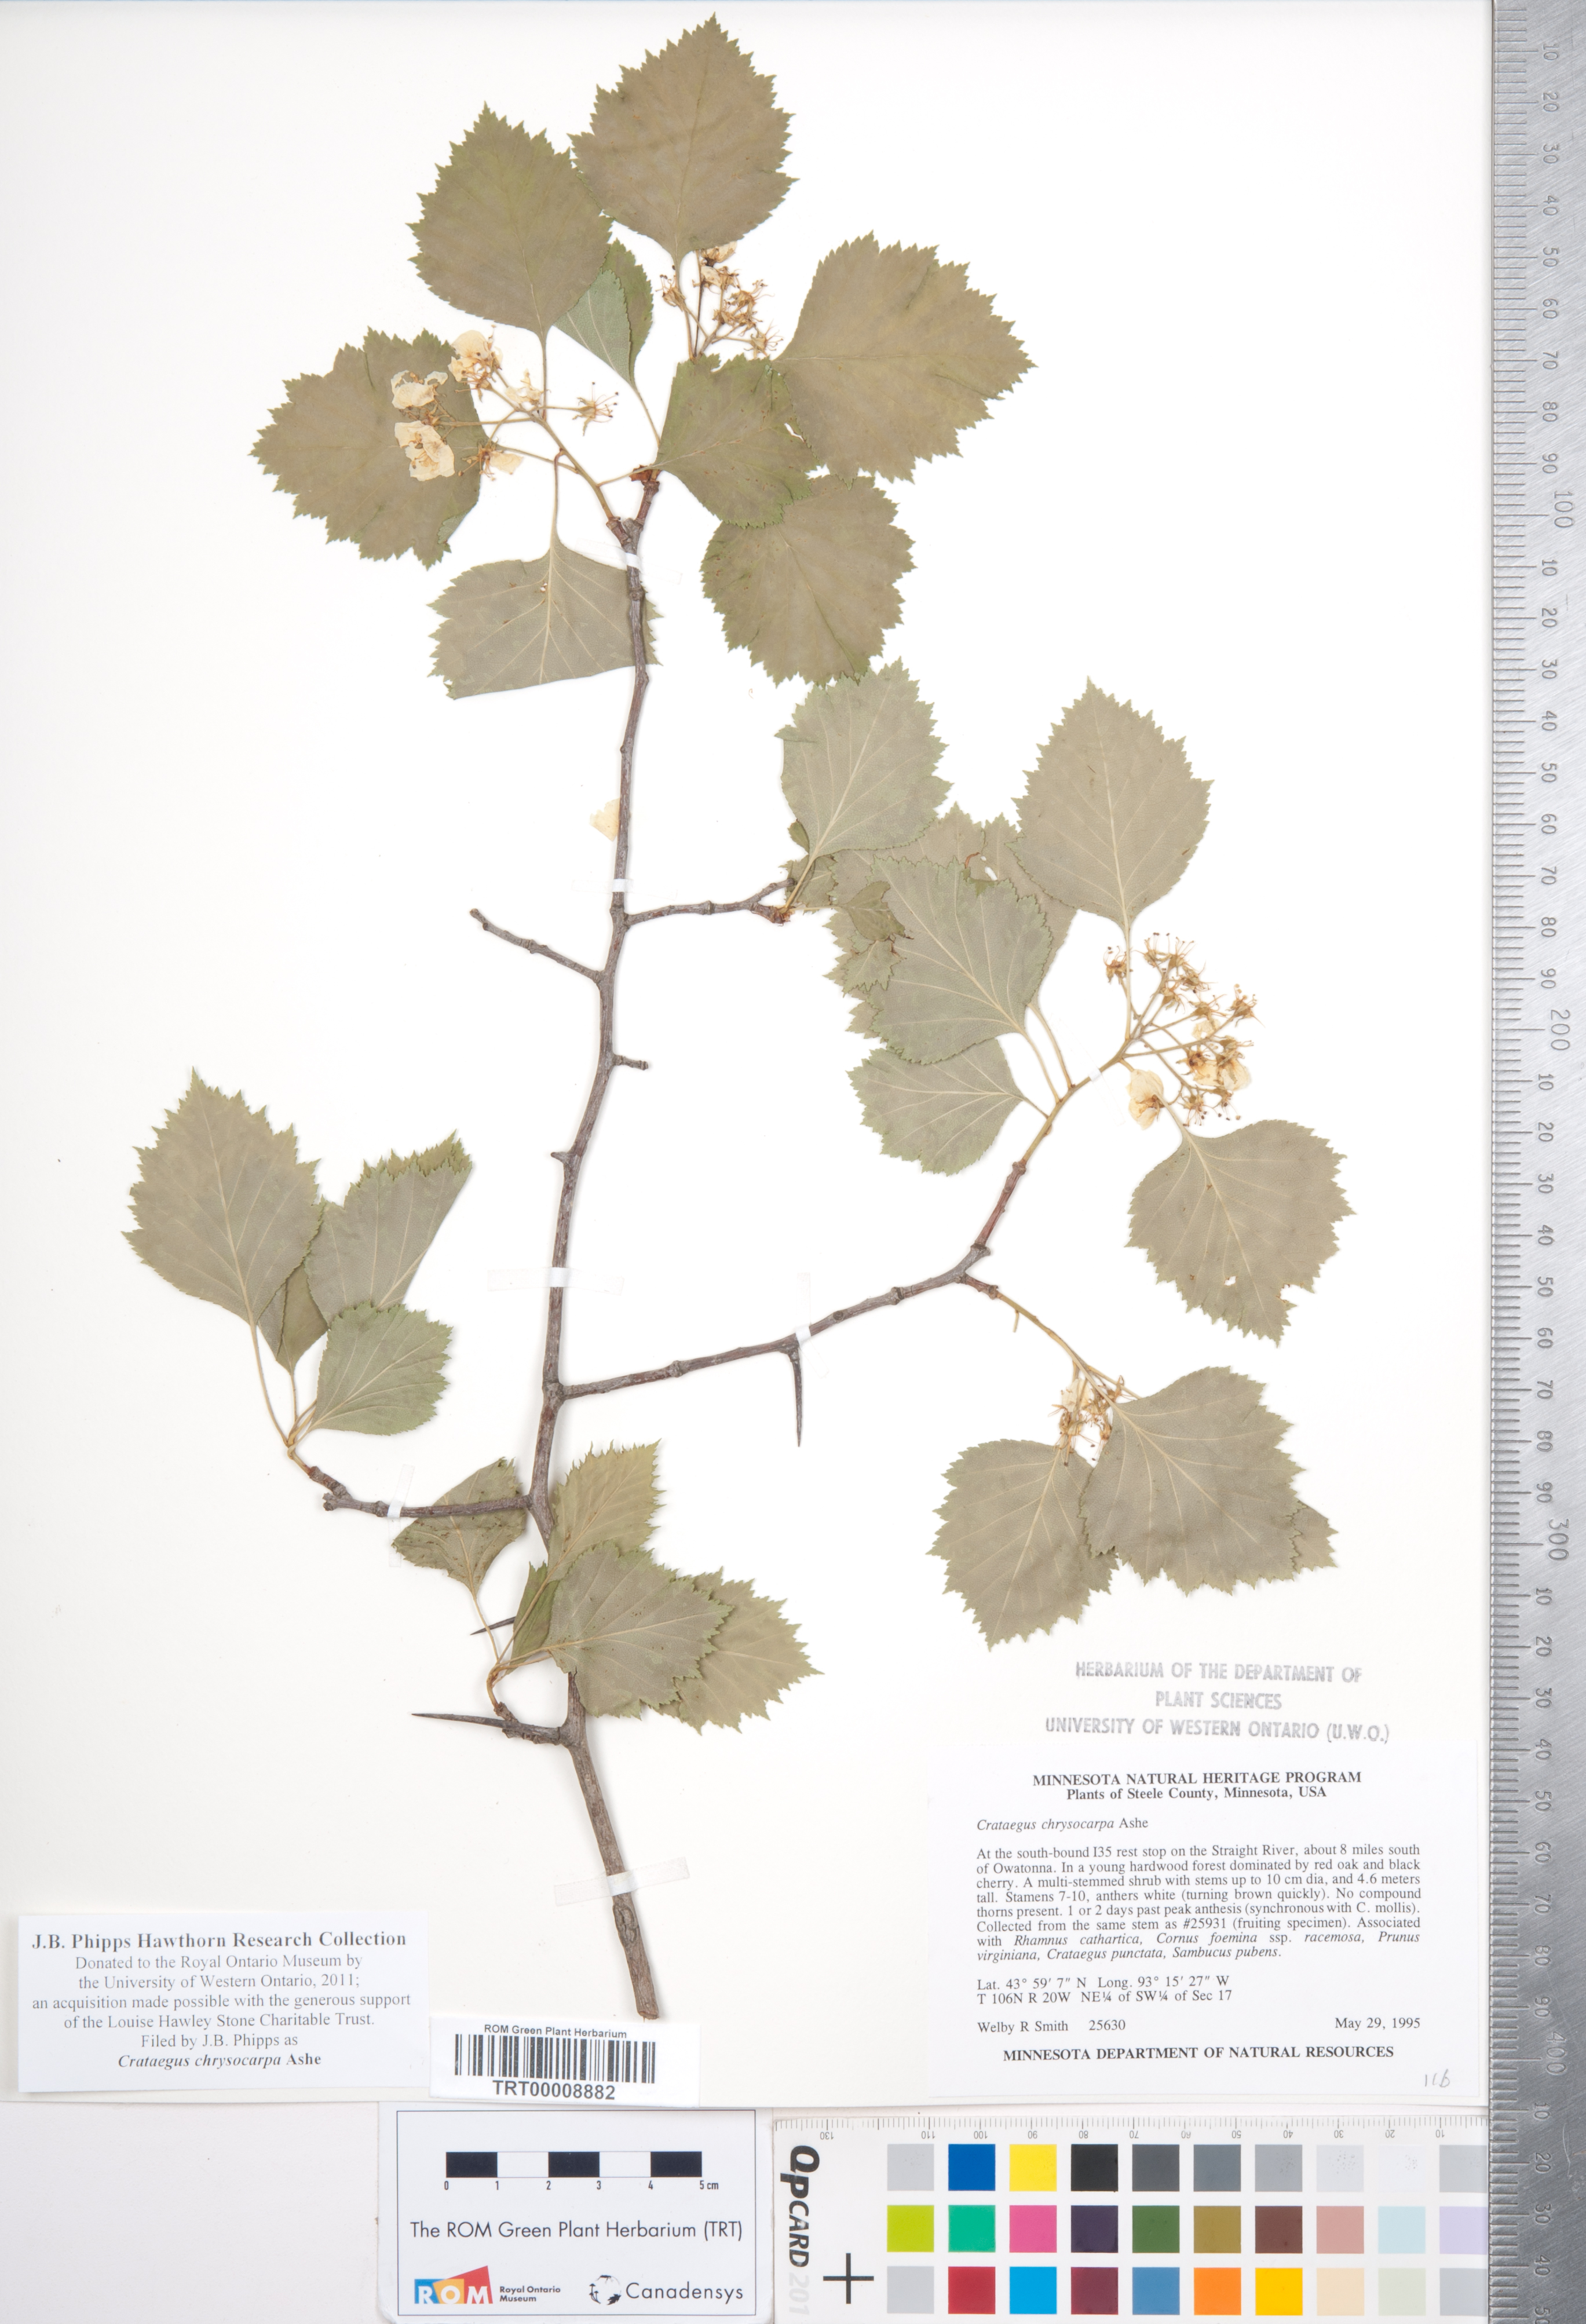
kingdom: Plantae
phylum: Tracheophyta
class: Magnoliopsida
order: Rosales
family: Rosaceae
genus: Crataegus
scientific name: Crataegus chrysocarpa
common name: Fire-berry hawthorn
